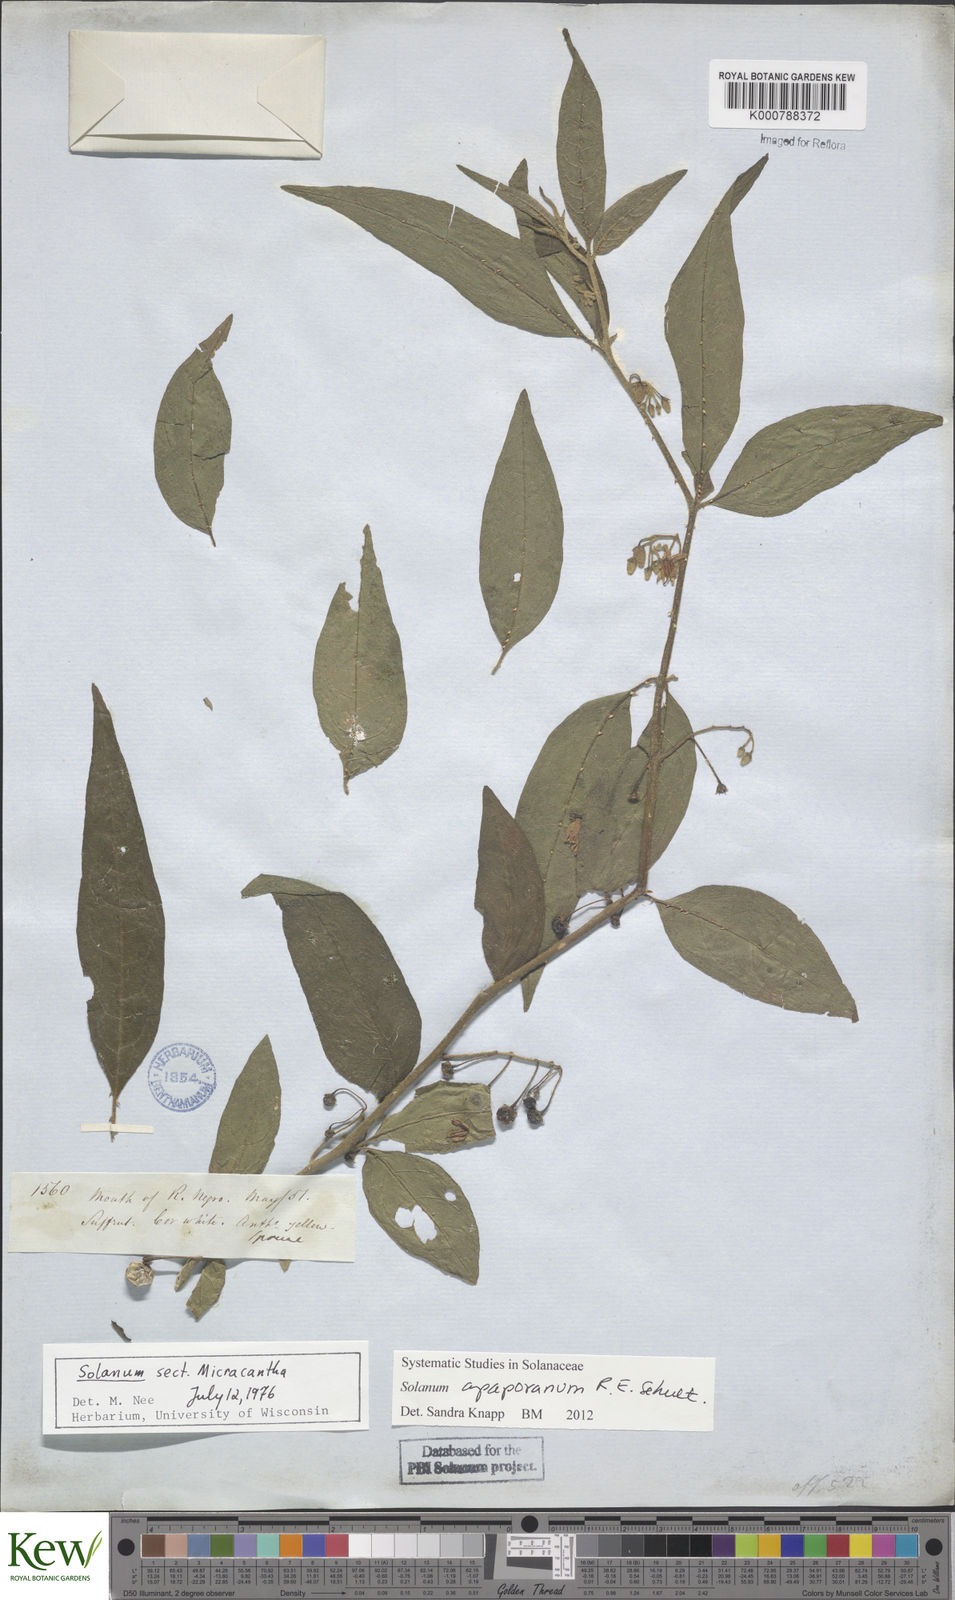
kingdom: Plantae
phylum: Tracheophyta
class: Magnoliopsida
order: Solanales
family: Solanaceae
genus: Solanum
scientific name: Solanum apaporanum
